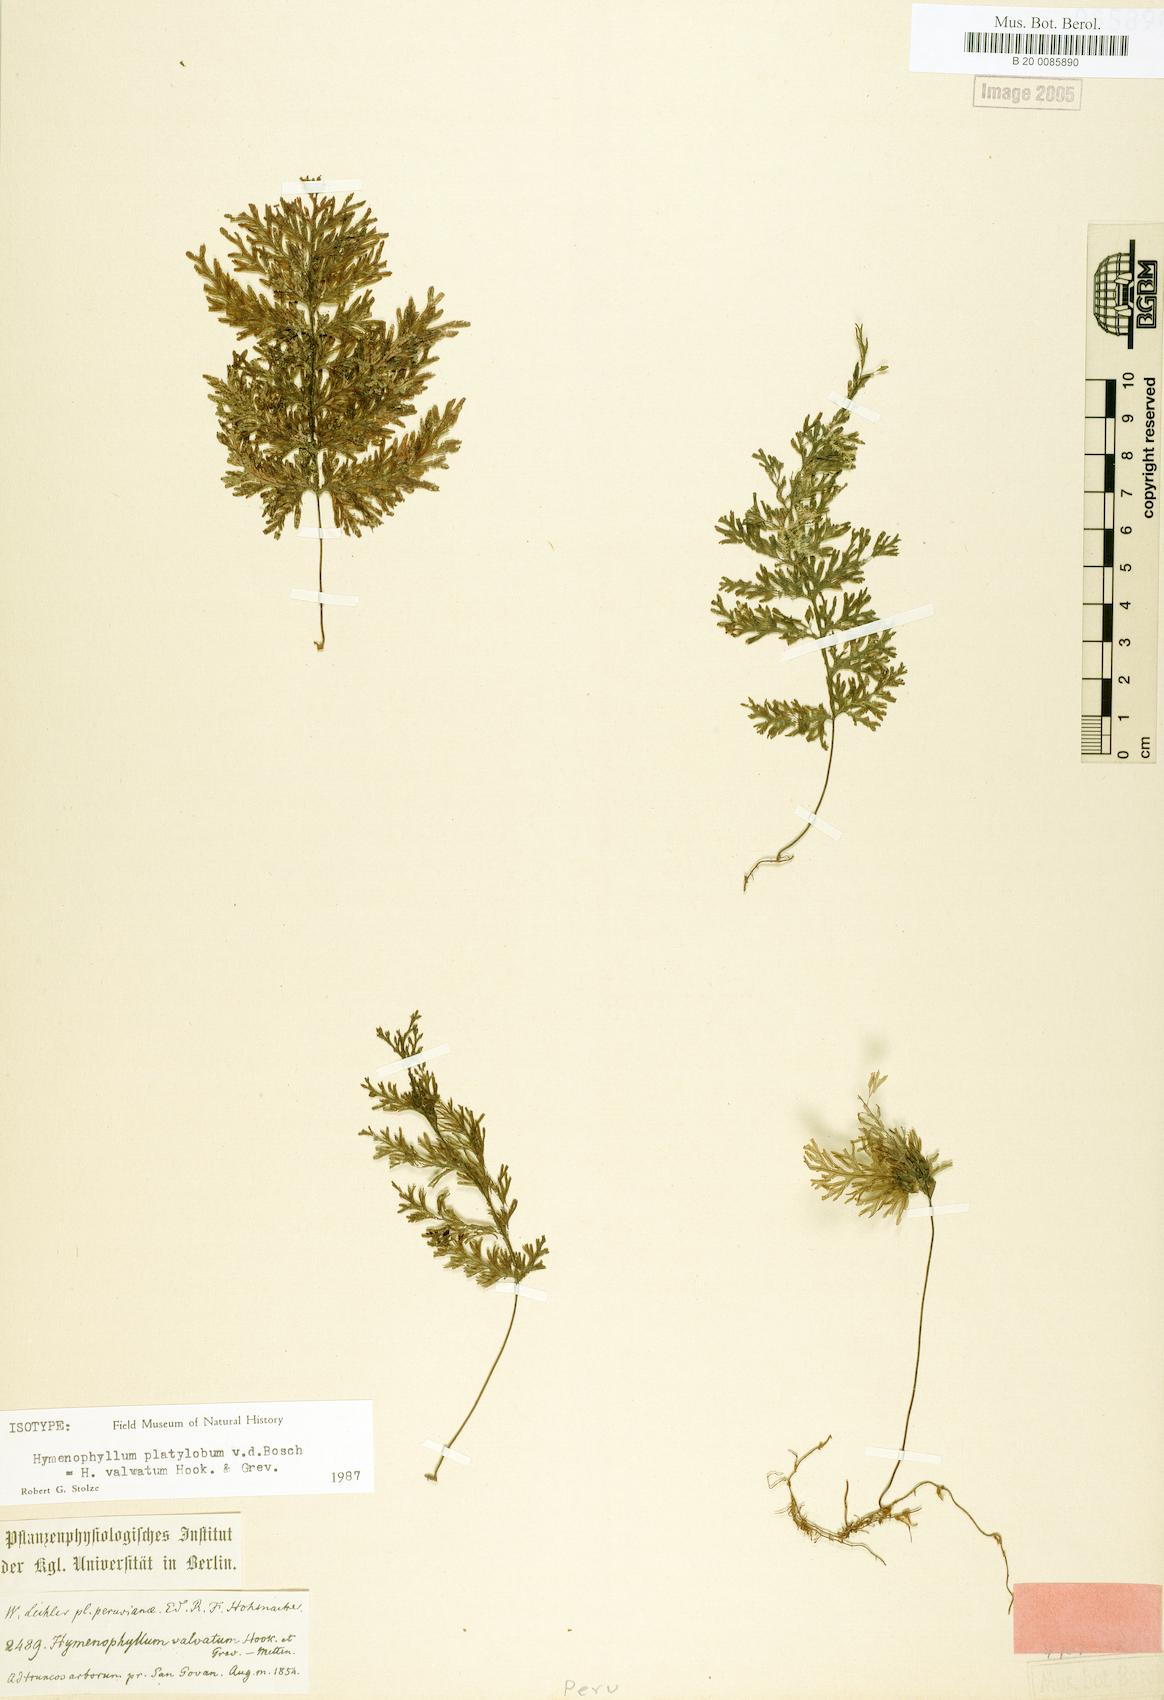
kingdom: Plantae
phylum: Tracheophyta
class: Polypodiopsida
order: Hymenophyllales
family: Hymenophyllaceae
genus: Hymenophyllum
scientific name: Hymenophyllum valvatum
